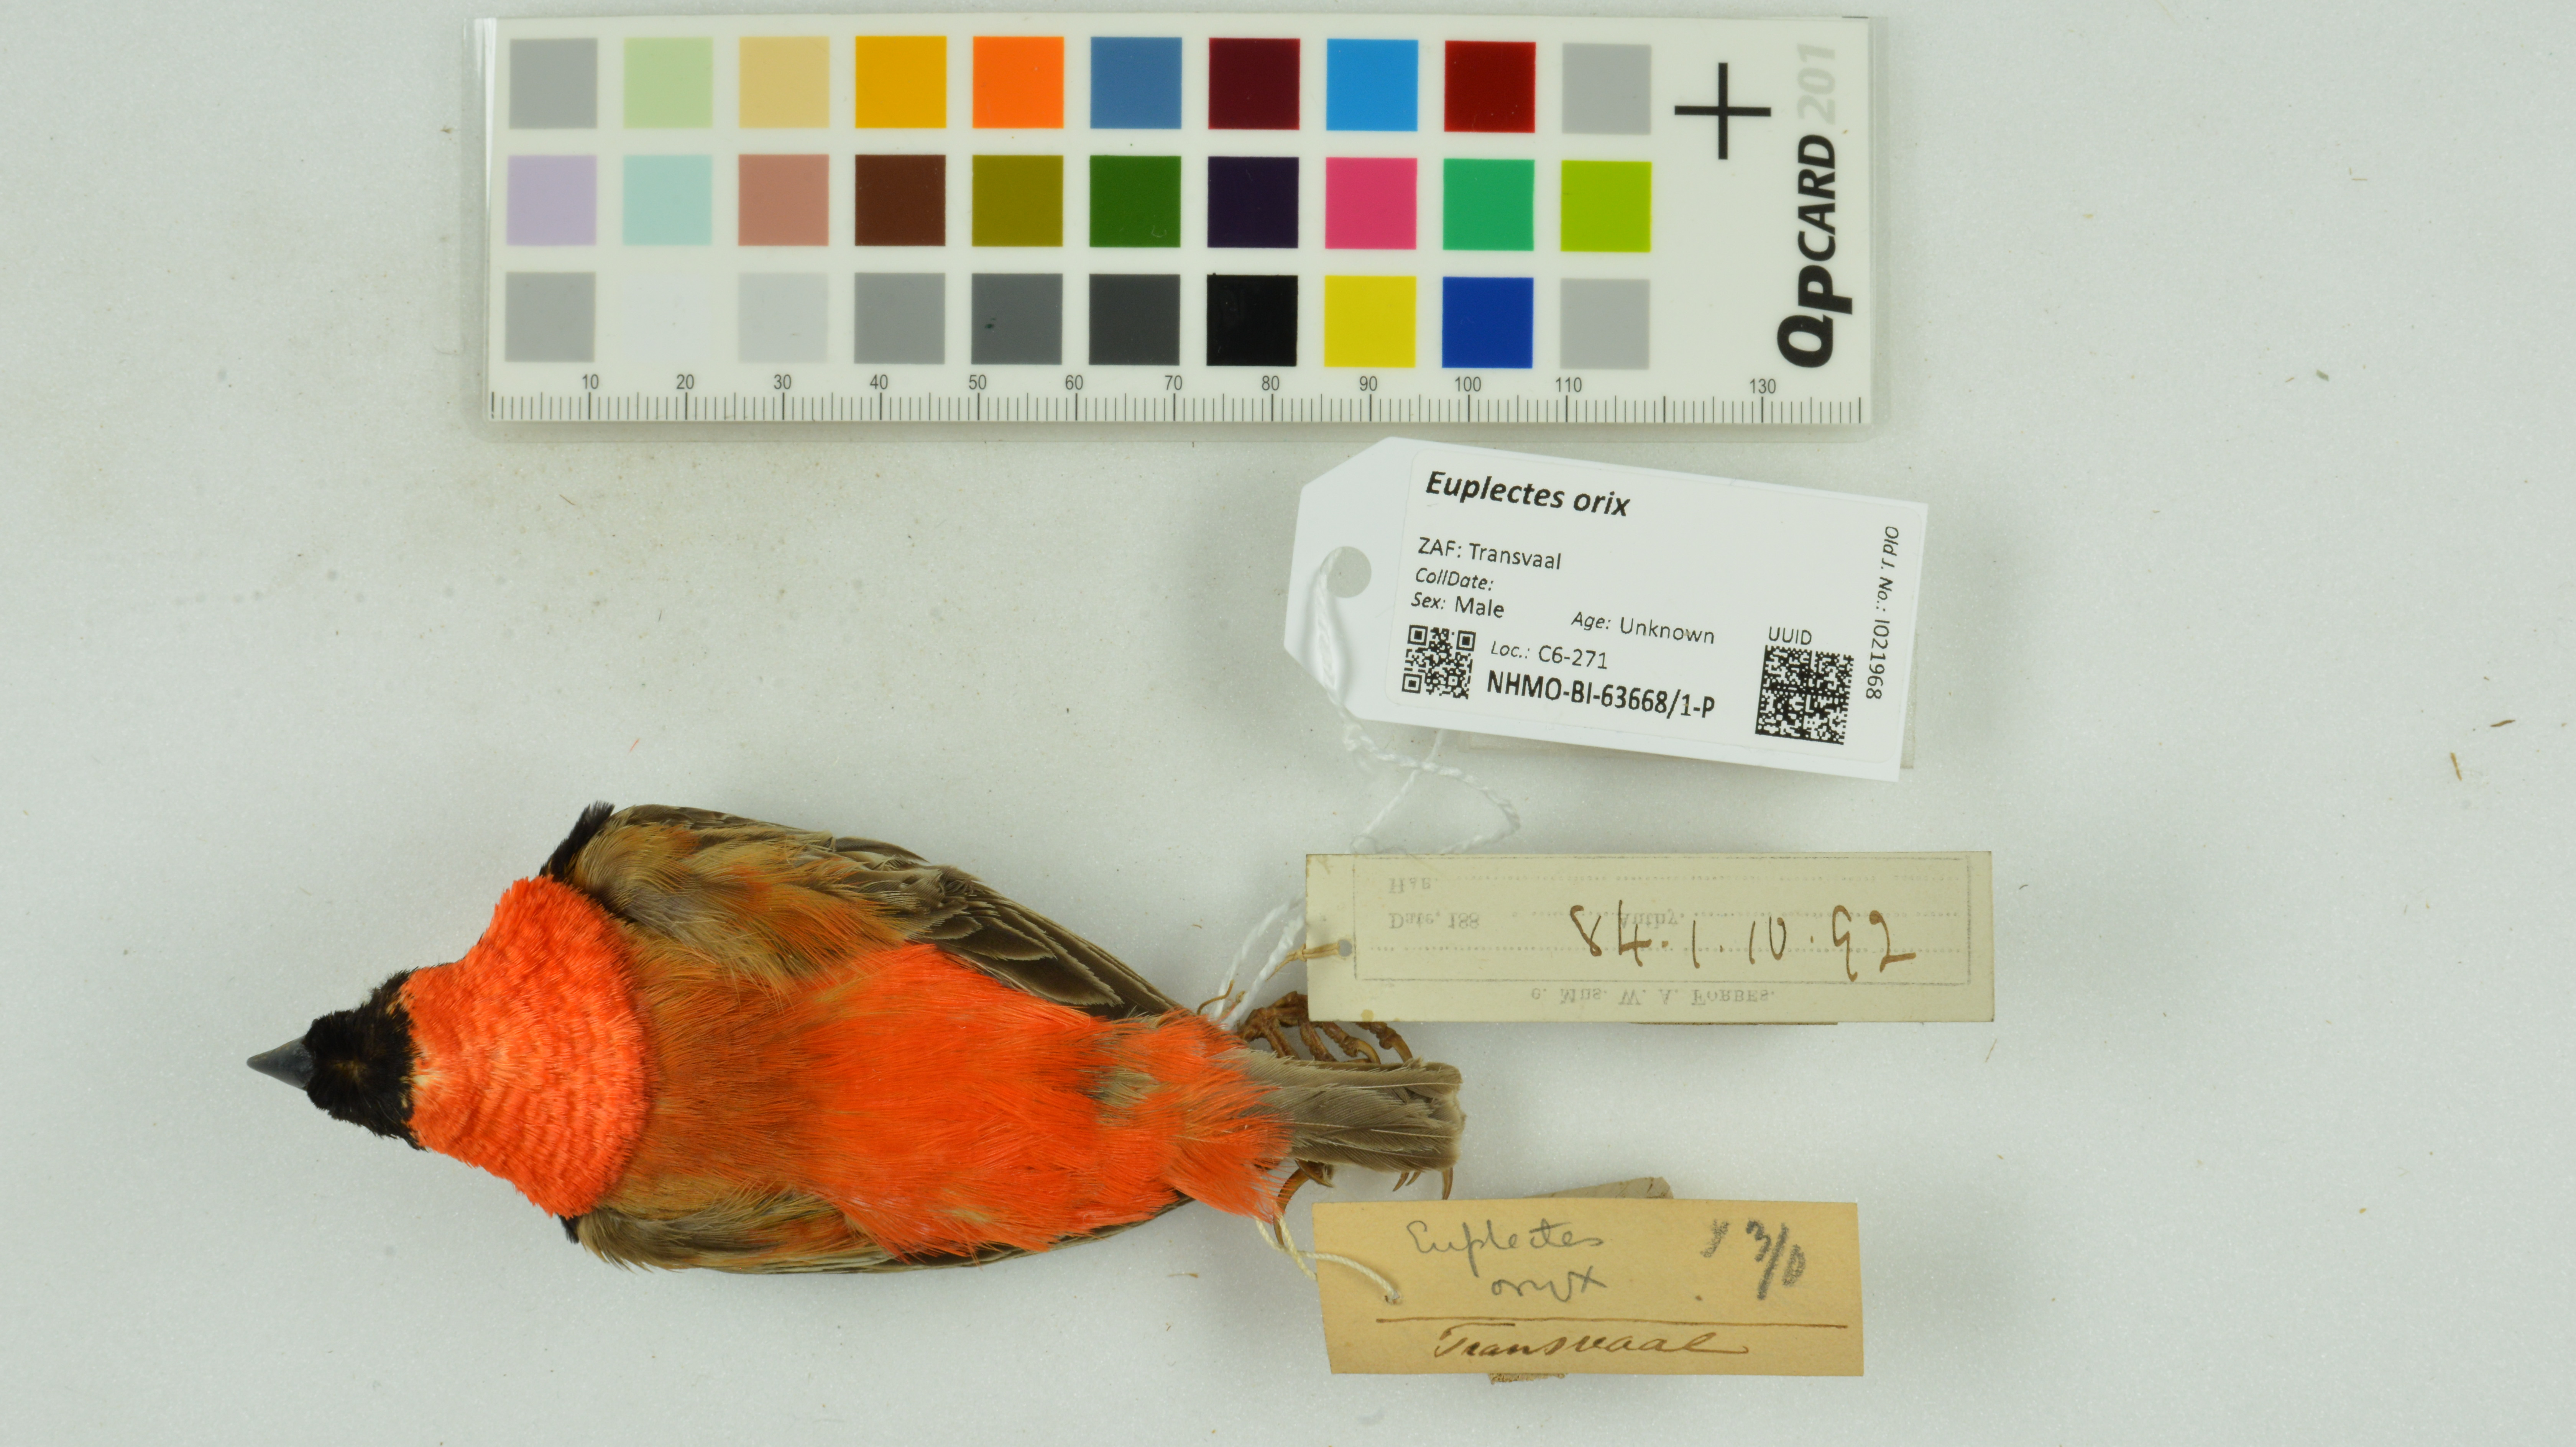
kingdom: Animalia
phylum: Chordata
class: Aves
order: Passeriformes
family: Ploceidae
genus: Euplectes
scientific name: Euplectes orix
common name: Southern red bishop
